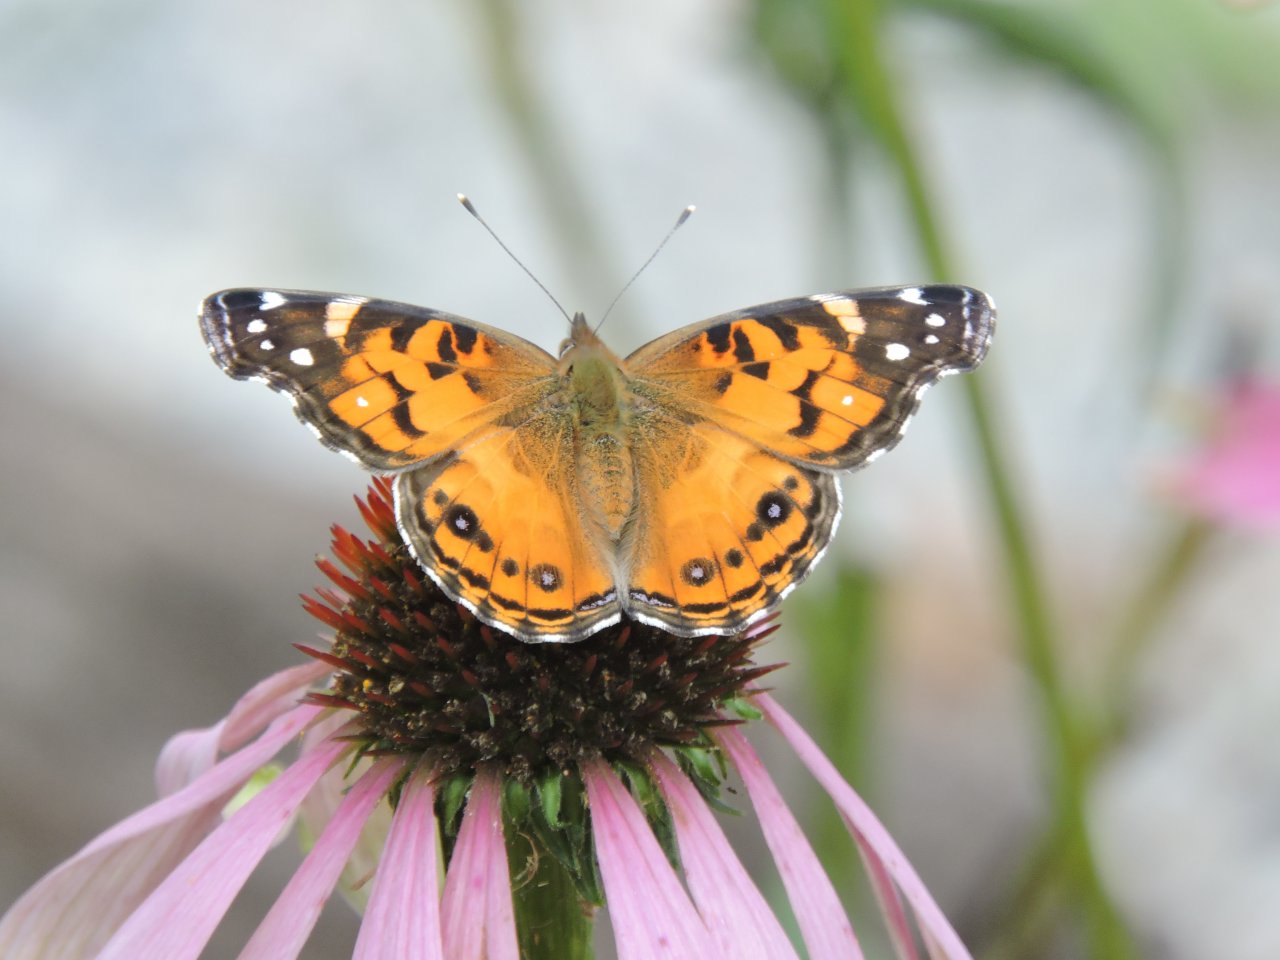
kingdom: Animalia
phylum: Arthropoda
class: Insecta
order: Lepidoptera
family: Nymphalidae
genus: Vanessa
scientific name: Vanessa virginiensis
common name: American Lady
